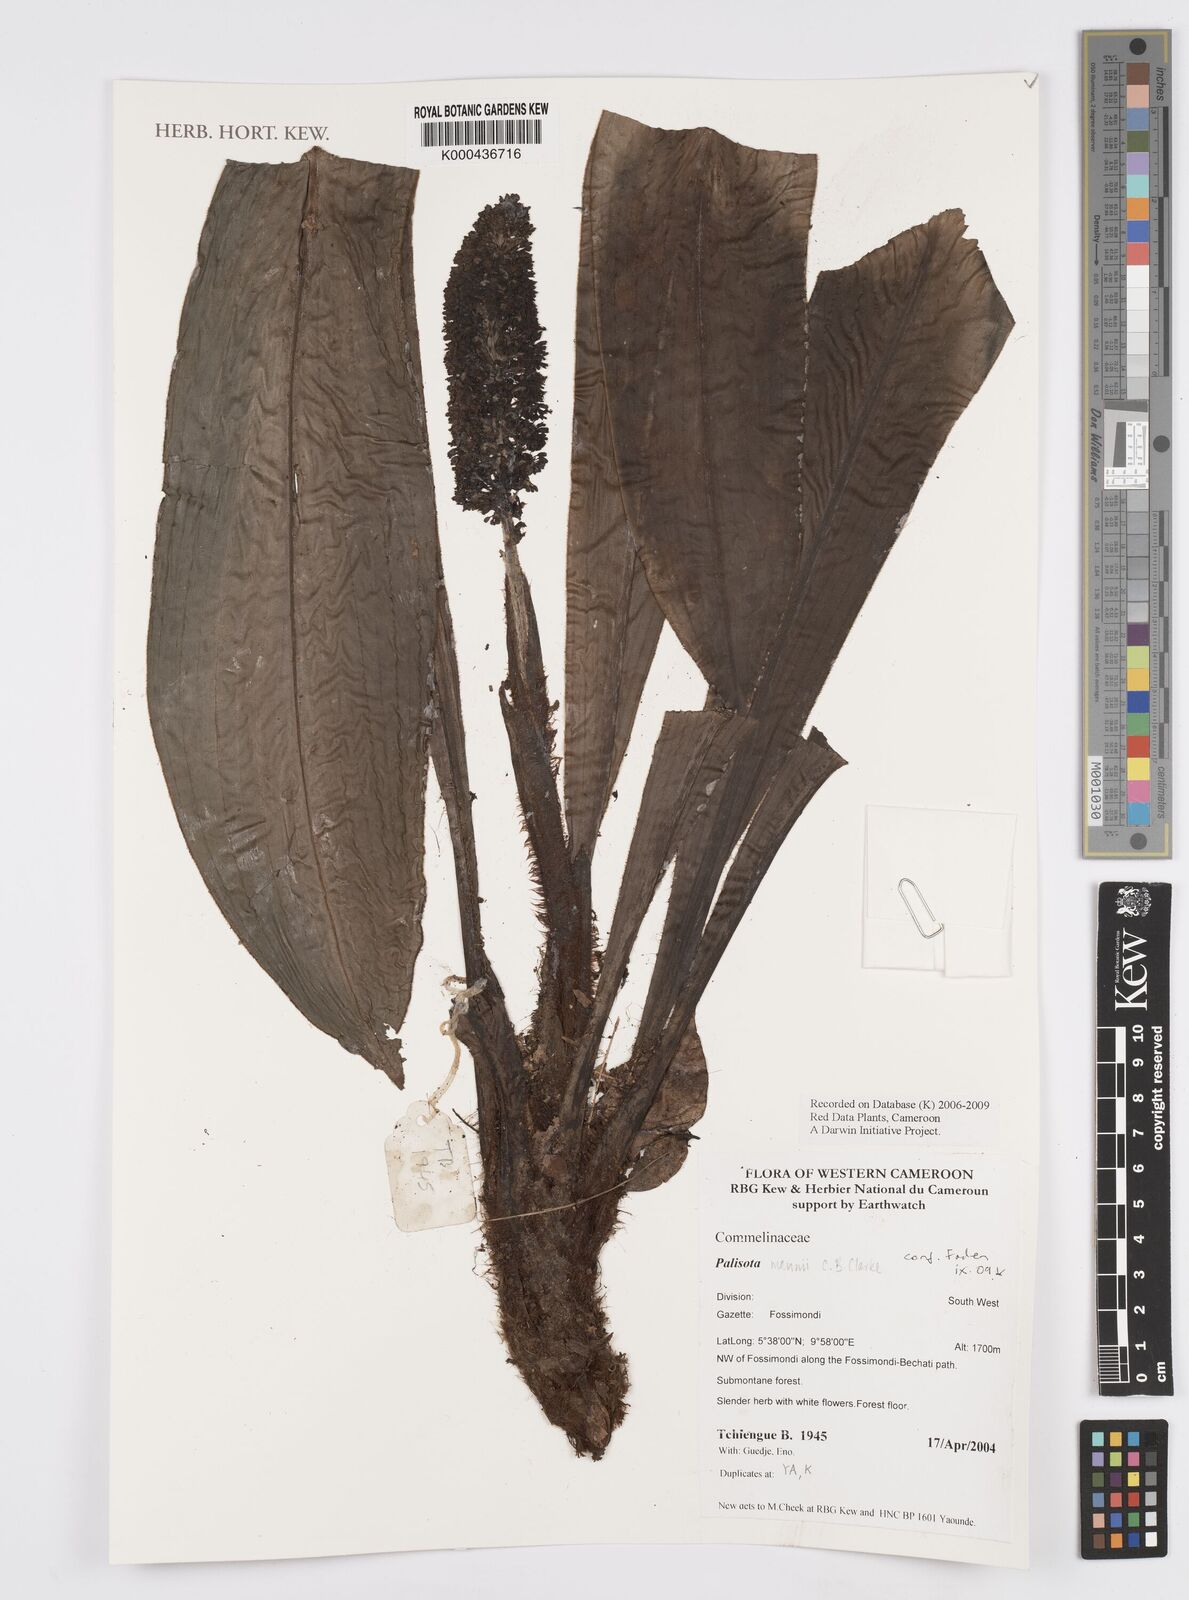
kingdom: Plantae
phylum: Tracheophyta
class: Liliopsida
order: Commelinales
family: Commelinaceae
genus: Palisota
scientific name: Palisota mannii
